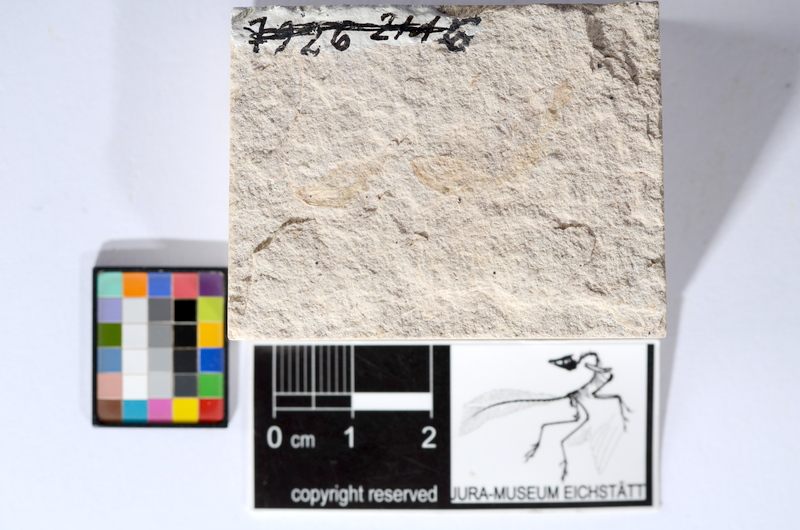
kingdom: Animalia
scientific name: Animalia
